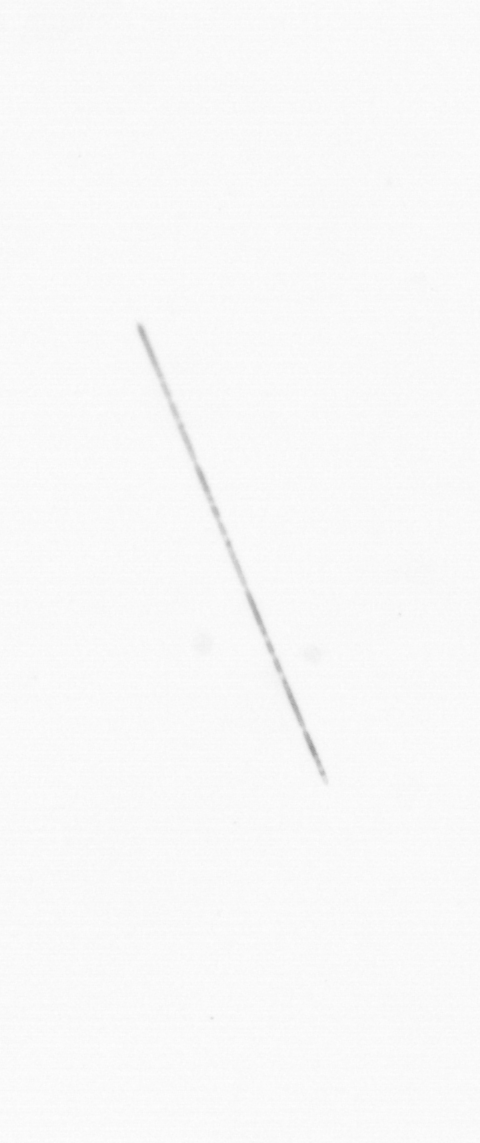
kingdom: Chromista
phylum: Ochrophyta
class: Bacillariophyceae
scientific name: Bacillariophyceae
